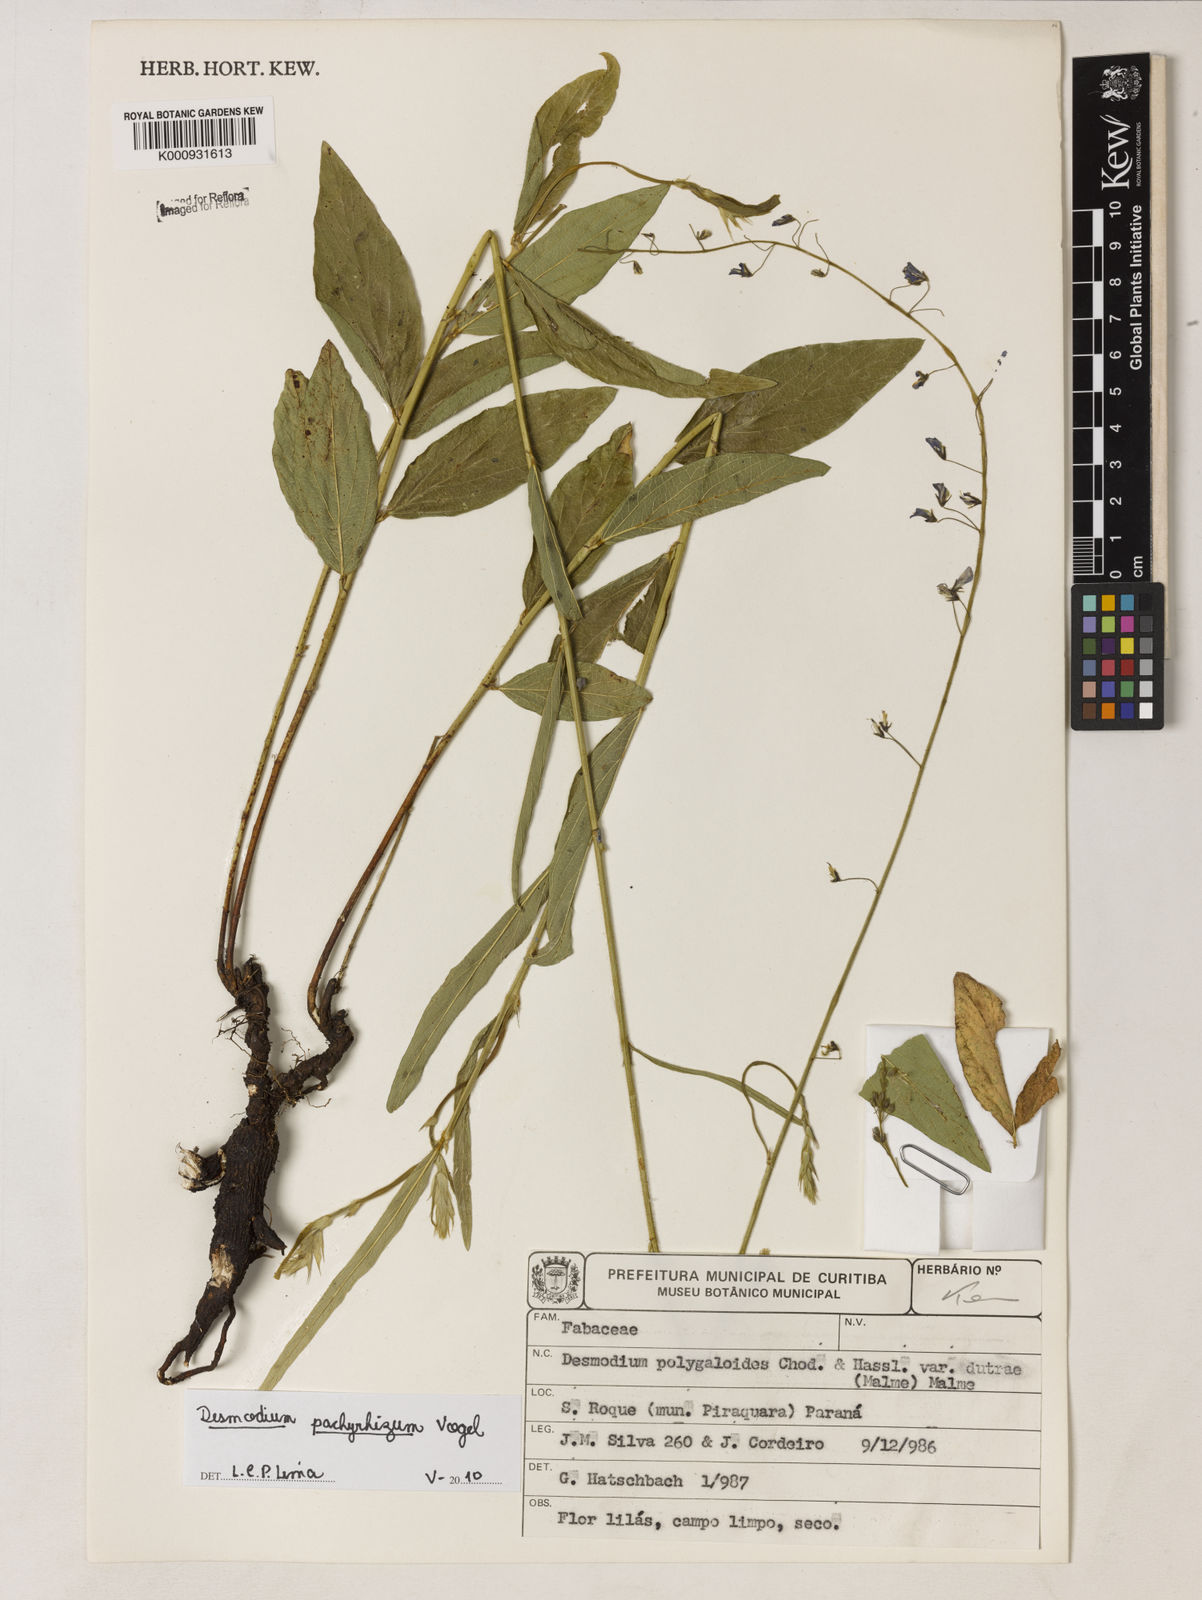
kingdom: Plantae
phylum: Tracheophyta
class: Magnoliopsida
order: Fabales
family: Fabaceae
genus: Desmodium
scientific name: Desmodium pachyrhizum
